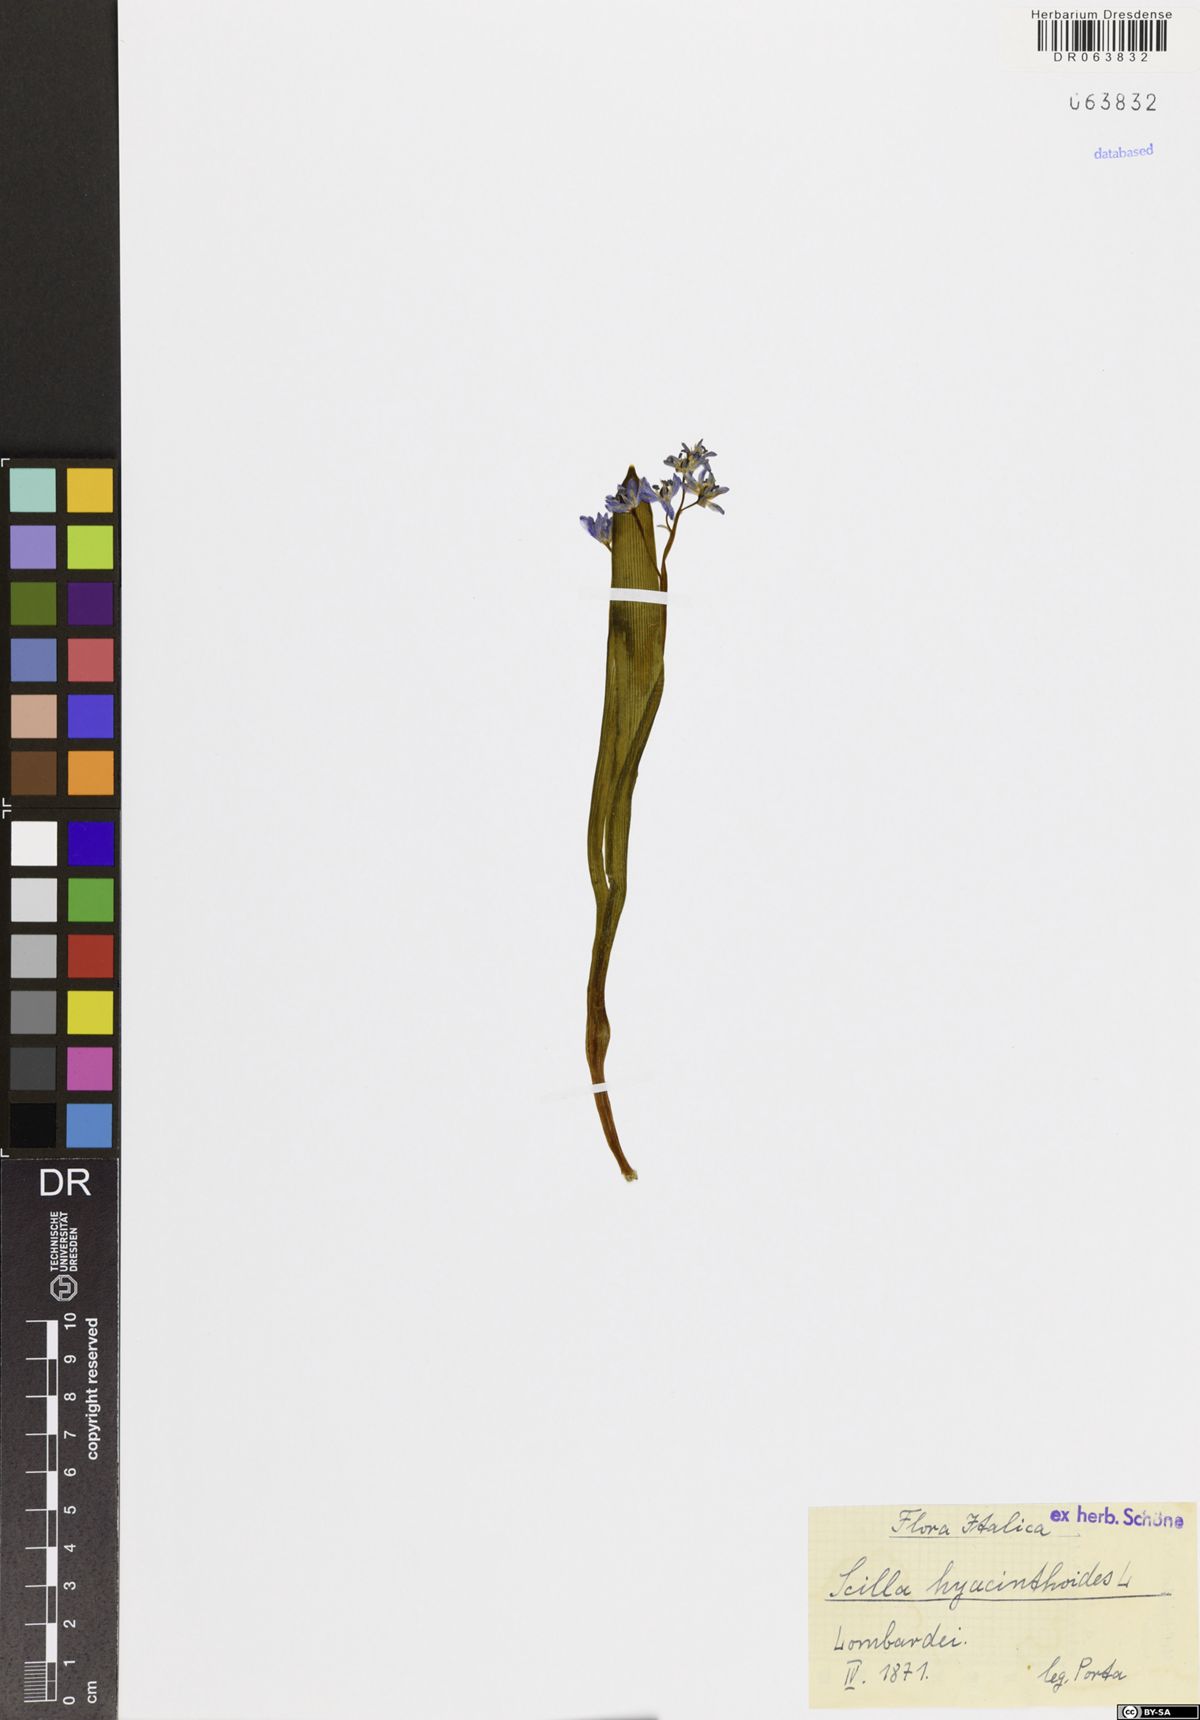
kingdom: Plantae
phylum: Tracheophyta
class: Liliopsida
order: Asparagales
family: Asparagaceae
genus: Scilla
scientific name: Scilla hyacinthoides
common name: Scilla
